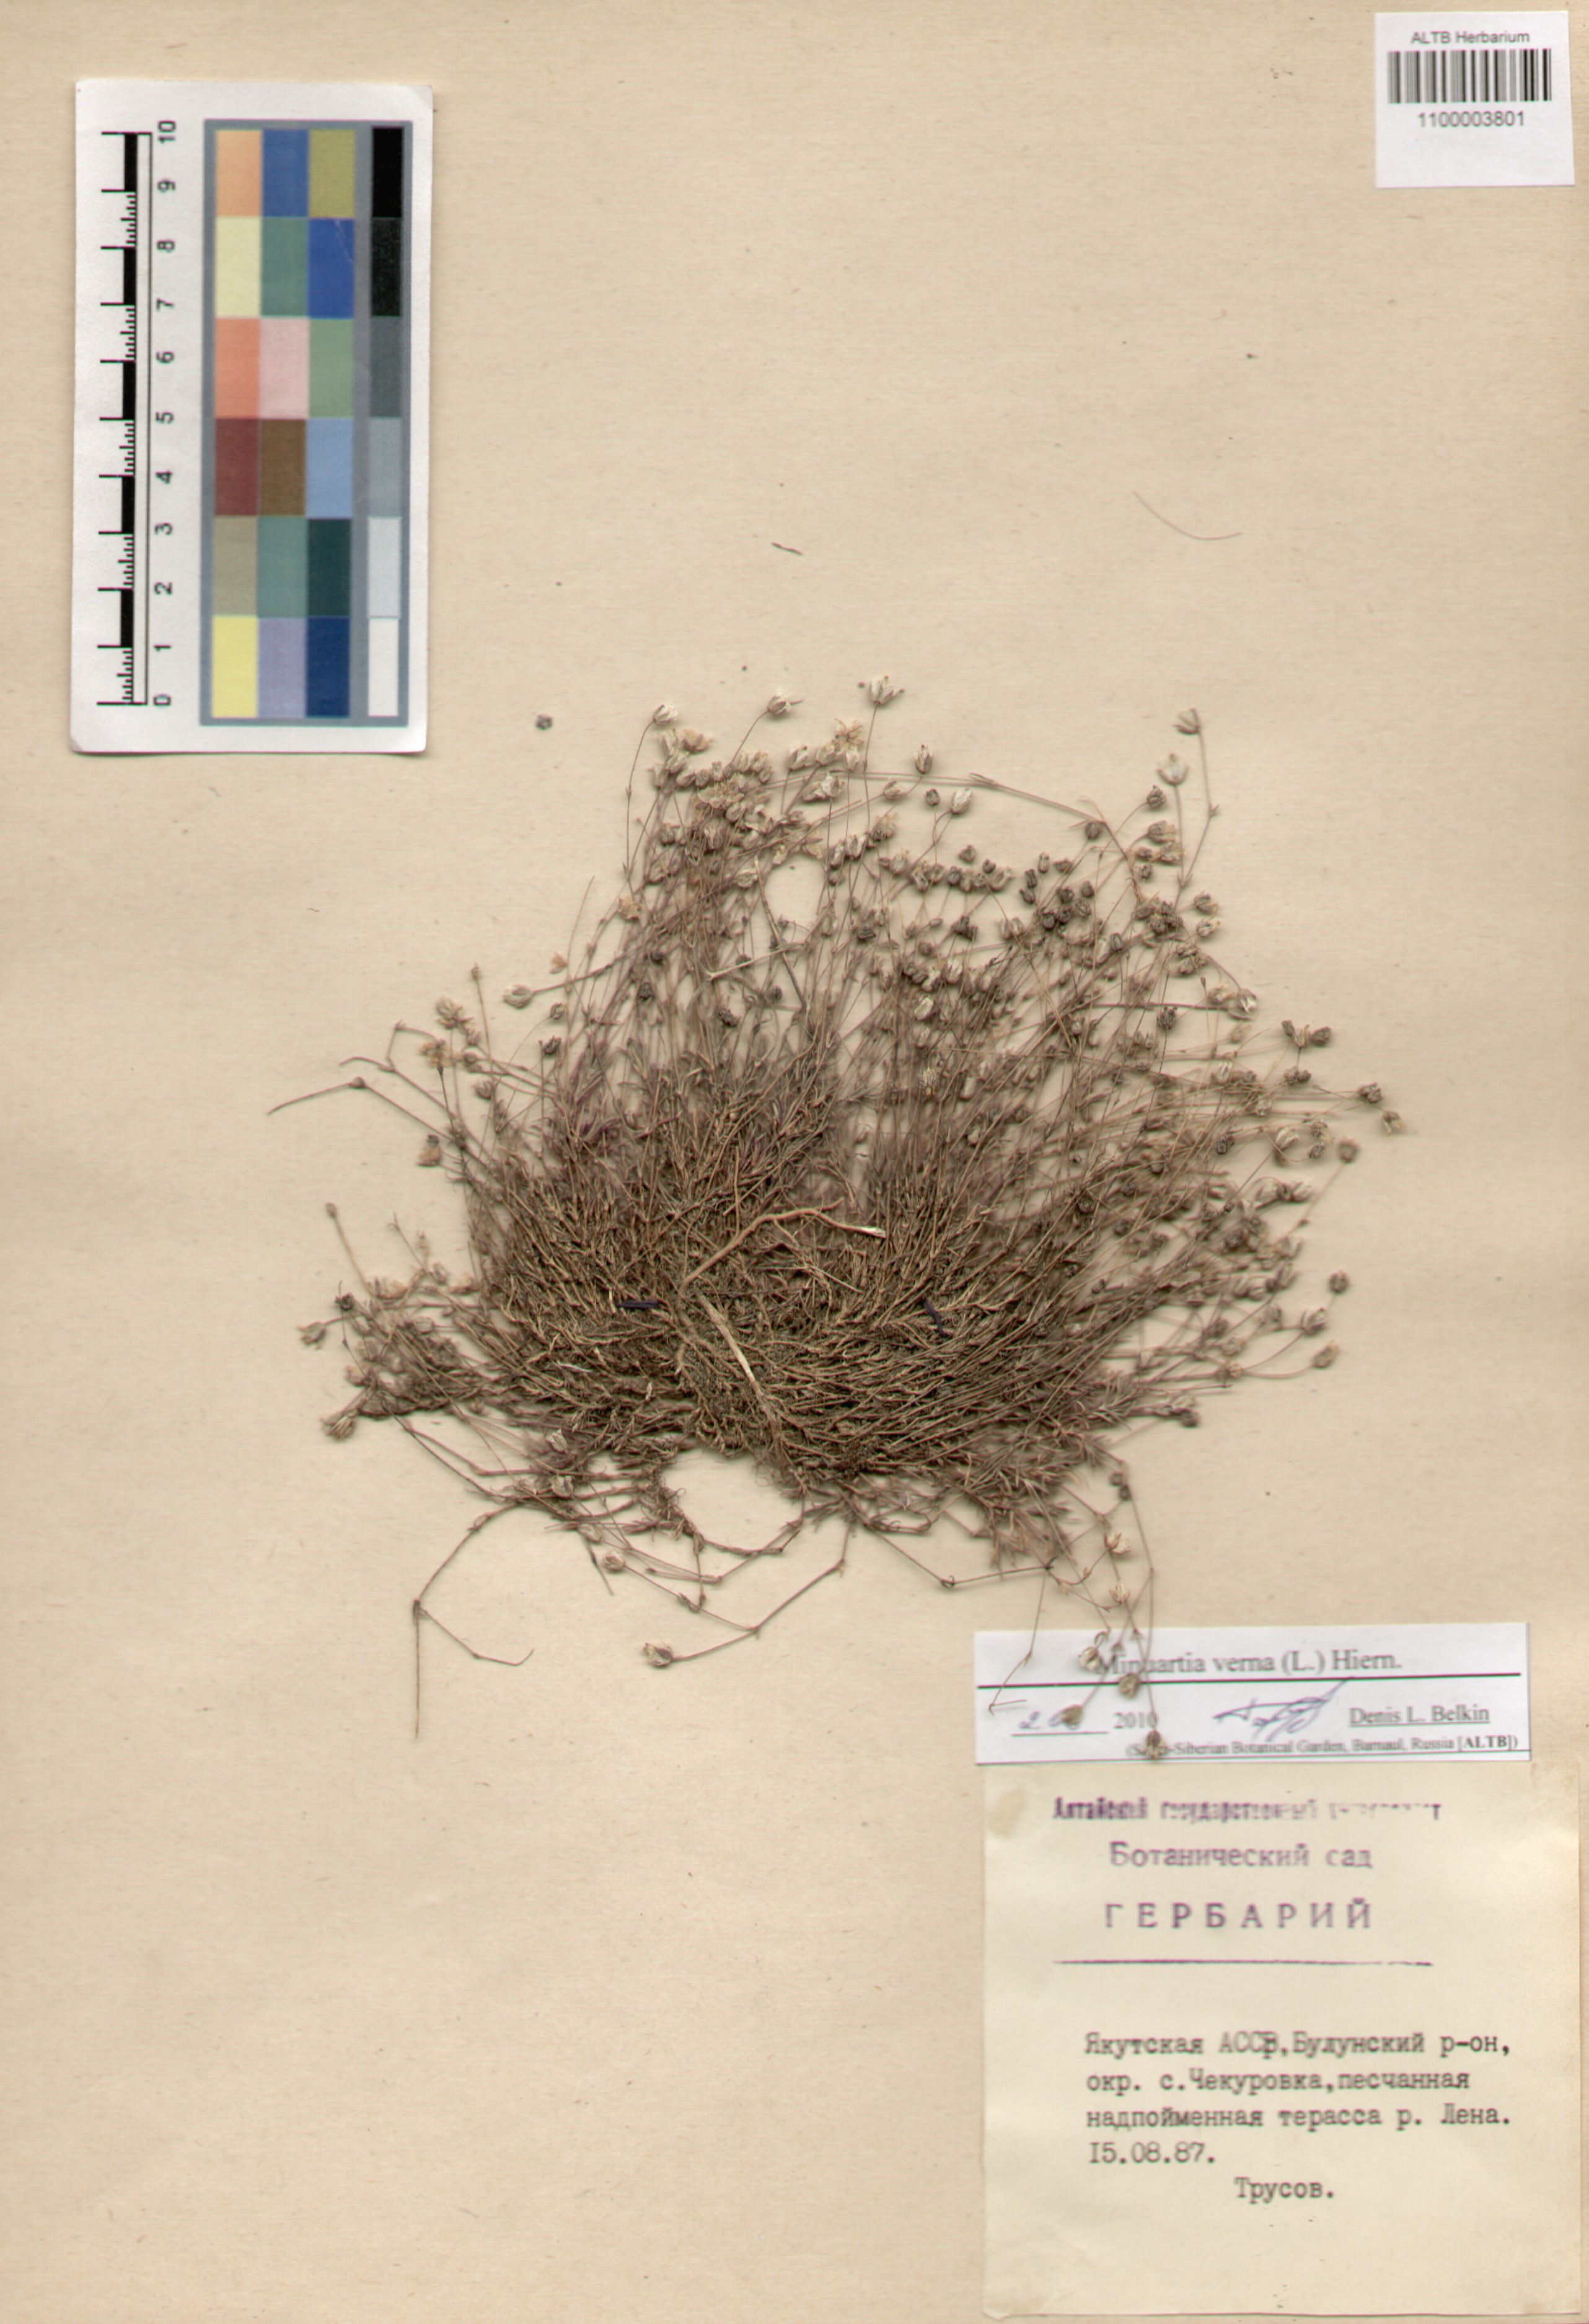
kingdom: Plantae
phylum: Tracheophyta
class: Magnoliopsida
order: Caryophyllales
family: Caryophyllaceae
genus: Sabulina
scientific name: Sabulina verna
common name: Spring sandwort
